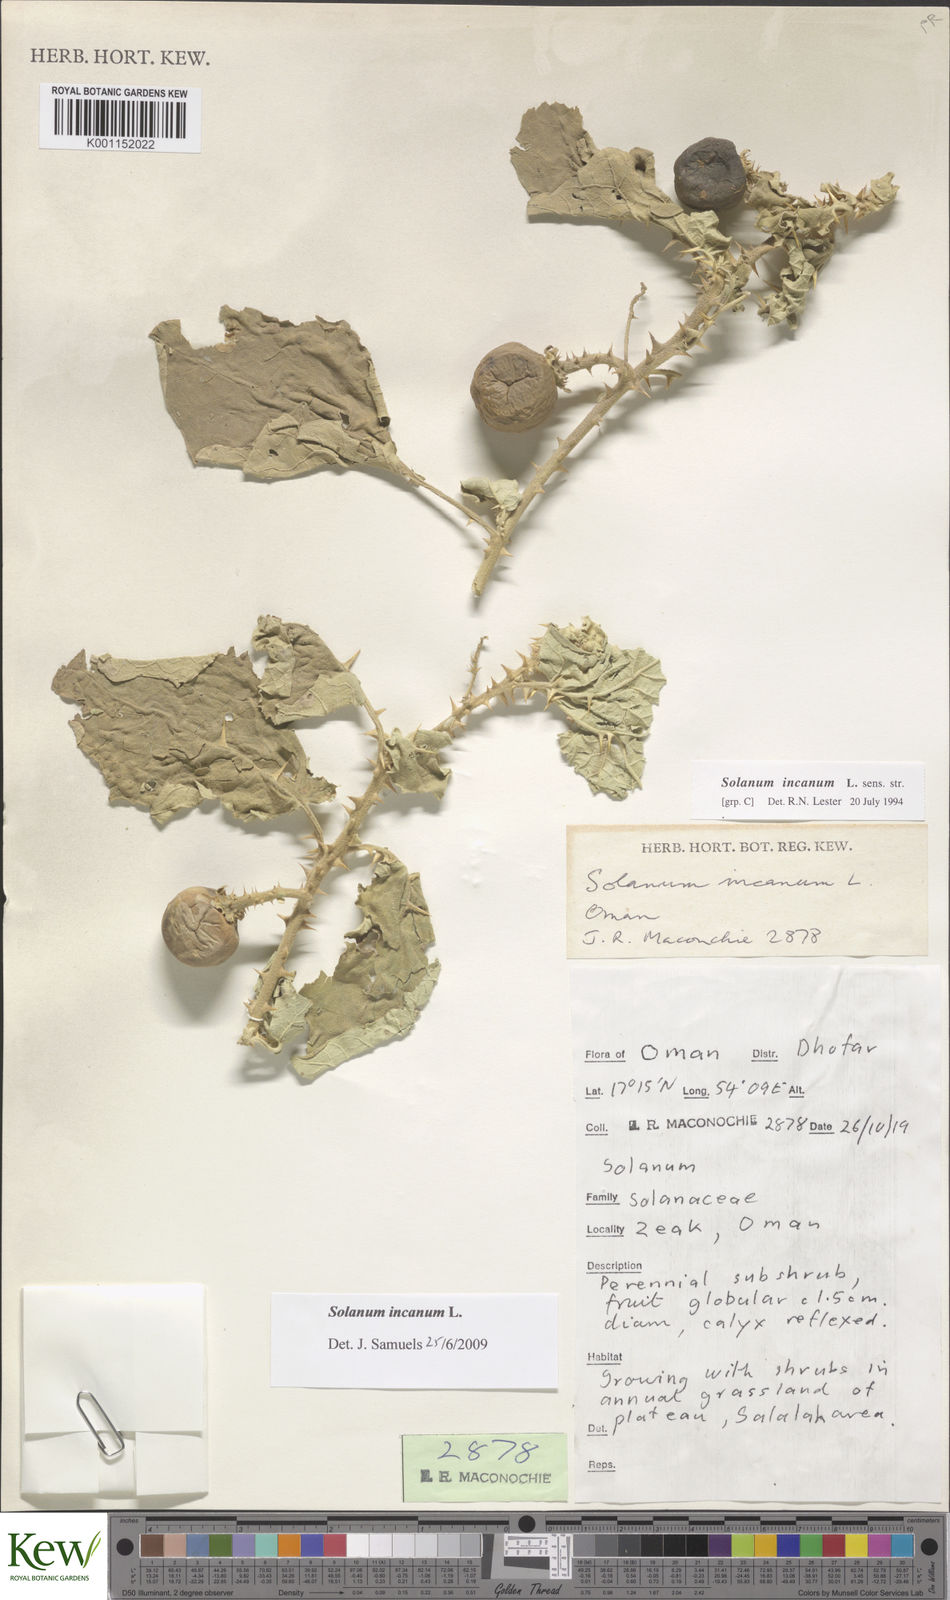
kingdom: Plantae
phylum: Tracheophyta
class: Magnoliopsida
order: Solanales
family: Solanaceae
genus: Solanum
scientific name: Solanum incanum
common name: Bitter apple
